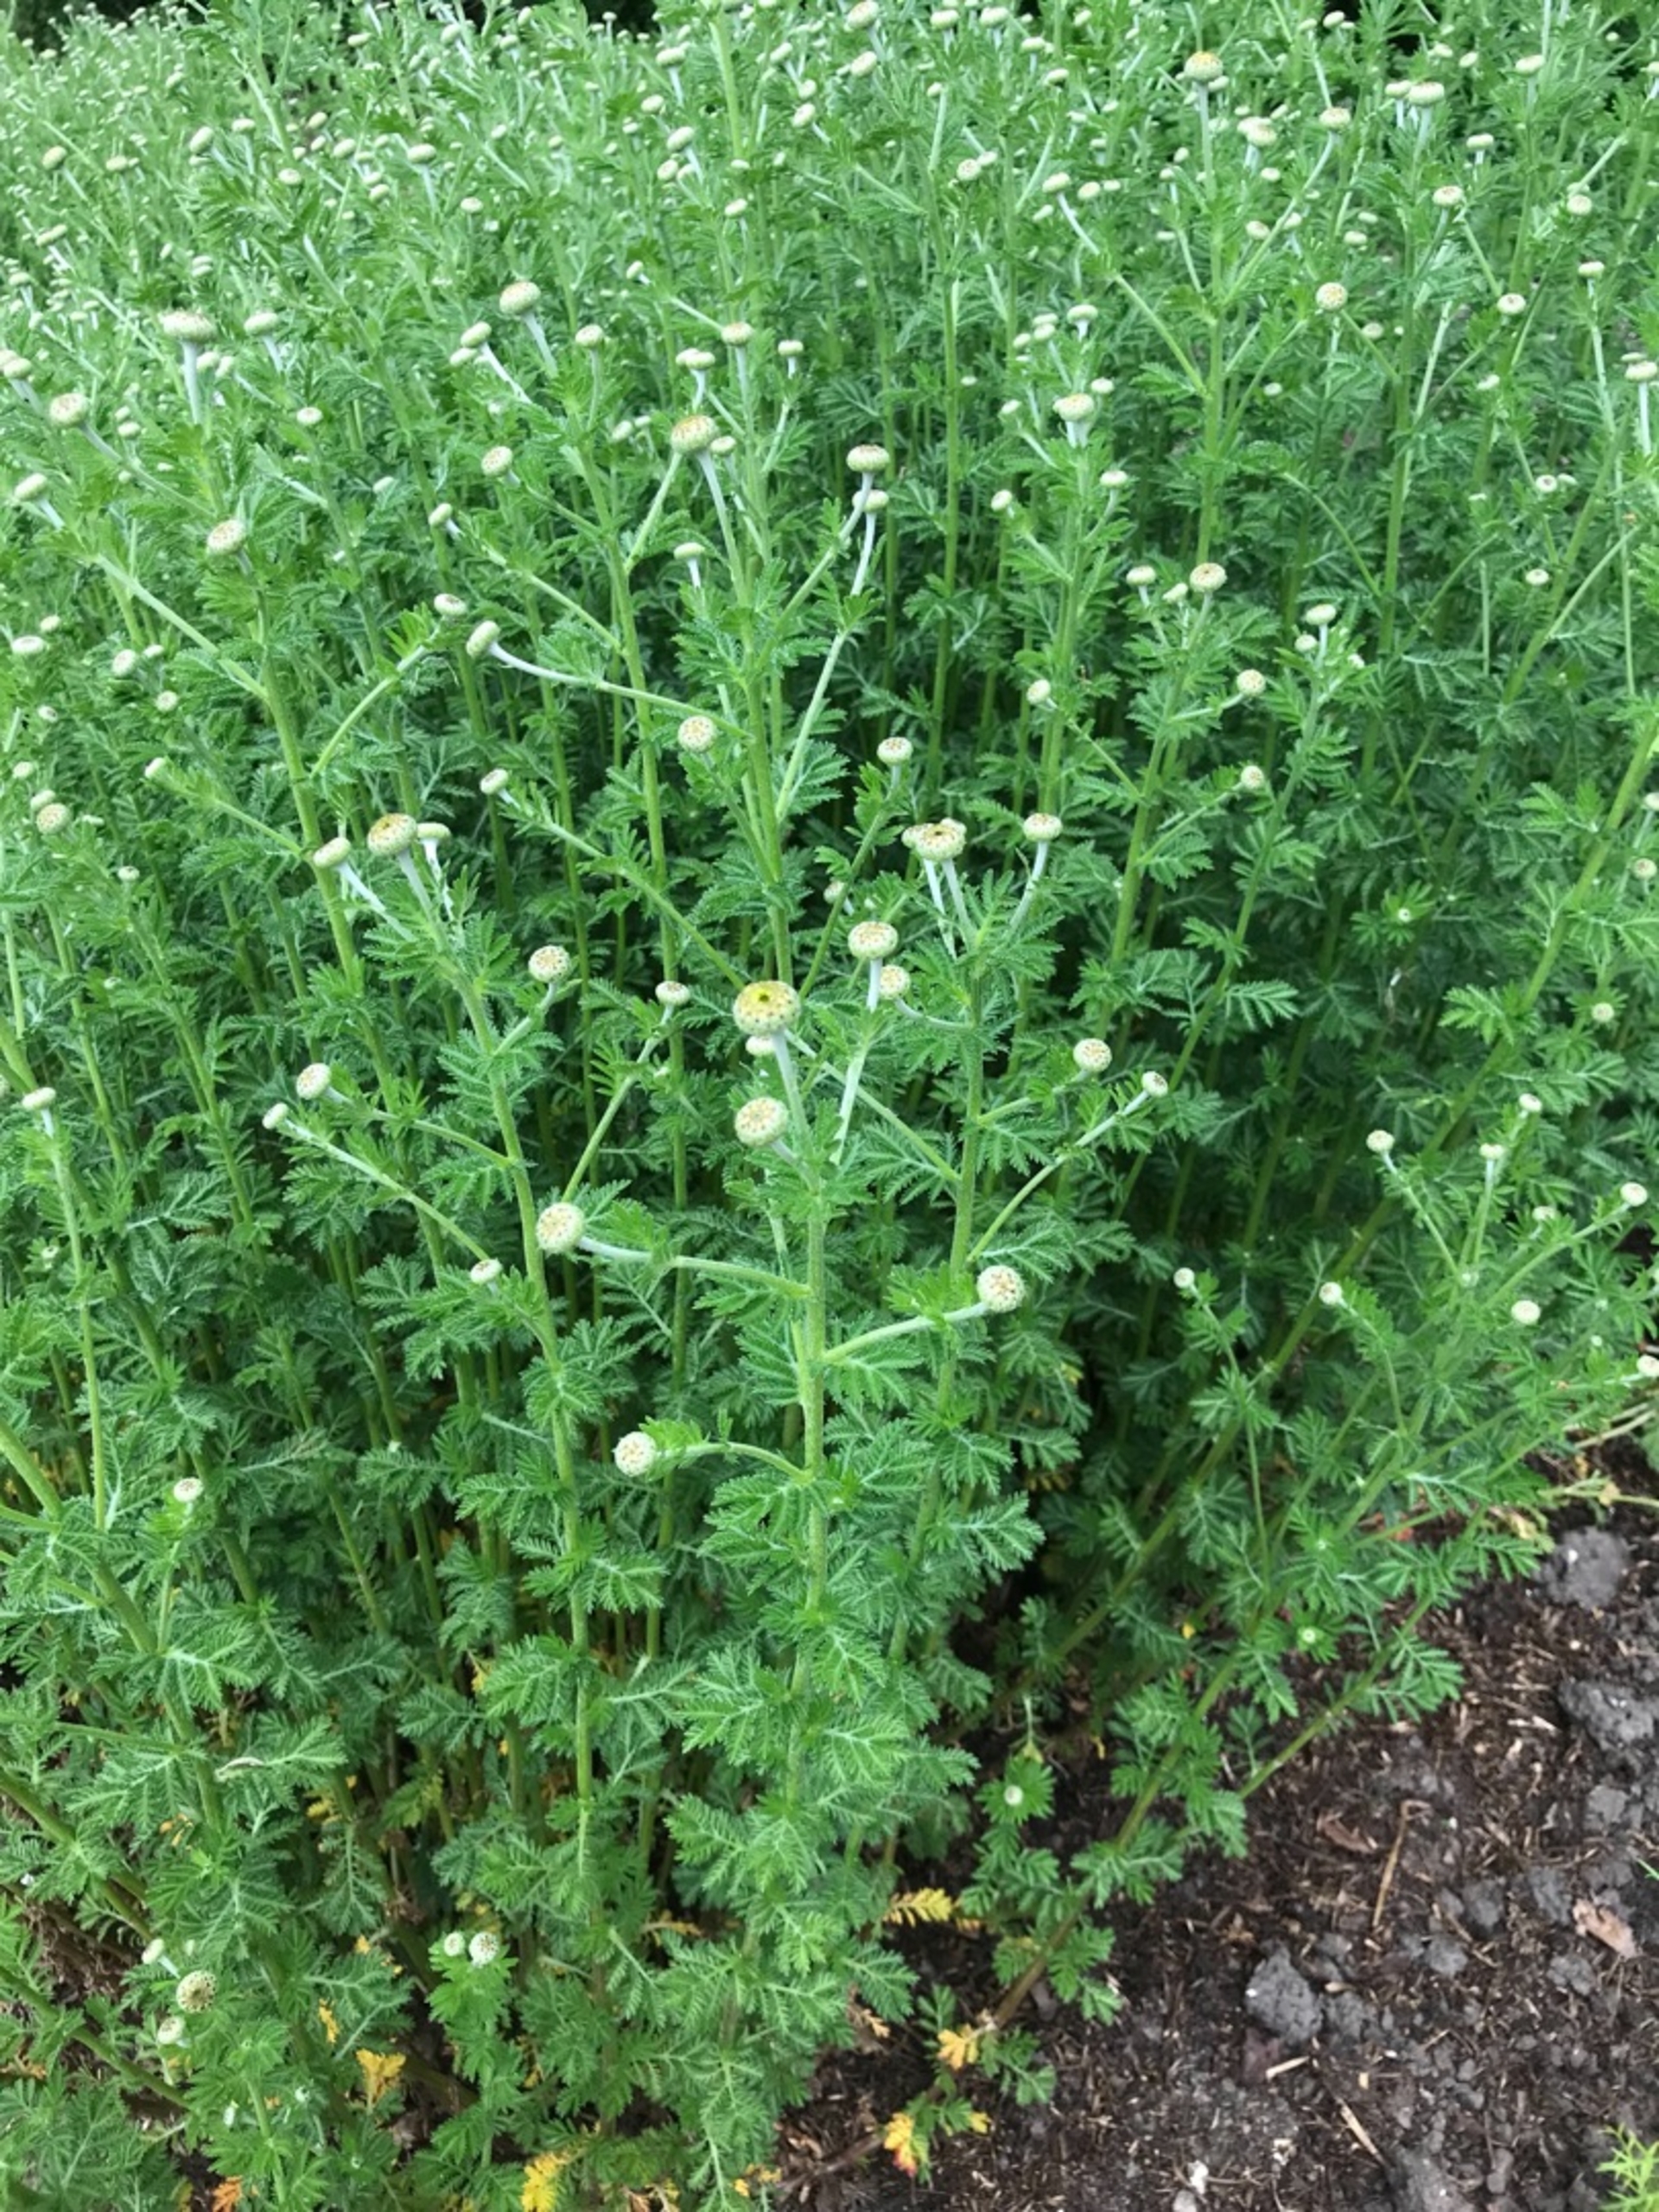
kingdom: Plantae
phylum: Tracheophyta
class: Magnoliopsida
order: Asterales
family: Asteraceae
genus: Cota
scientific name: Cota tinctoria
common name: Farve-gåseurt
